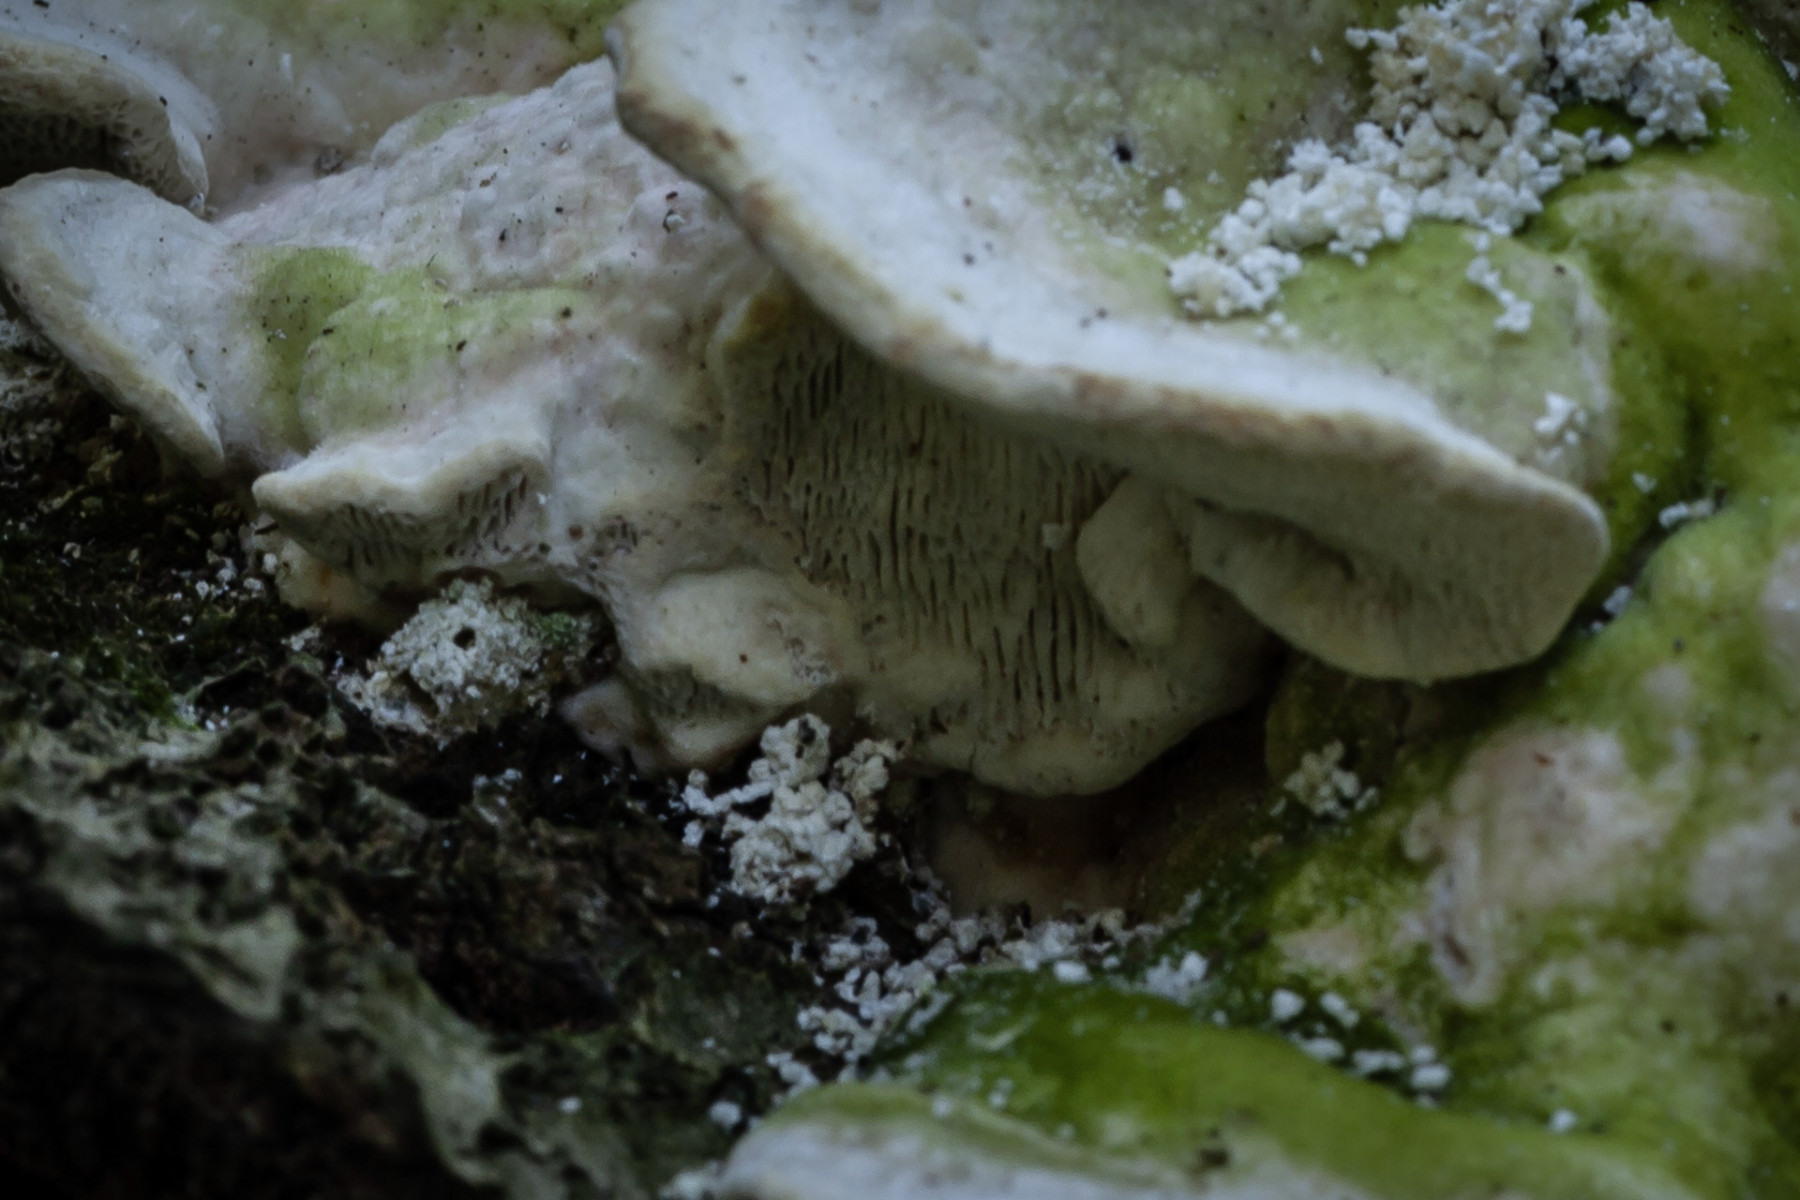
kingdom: Fungi
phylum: Basidiomycota
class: Agaricomycetes
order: Polyporales
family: Polyporaceae
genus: Trametes
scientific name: Trametes gibbosa
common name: puklet læderporesvamp
